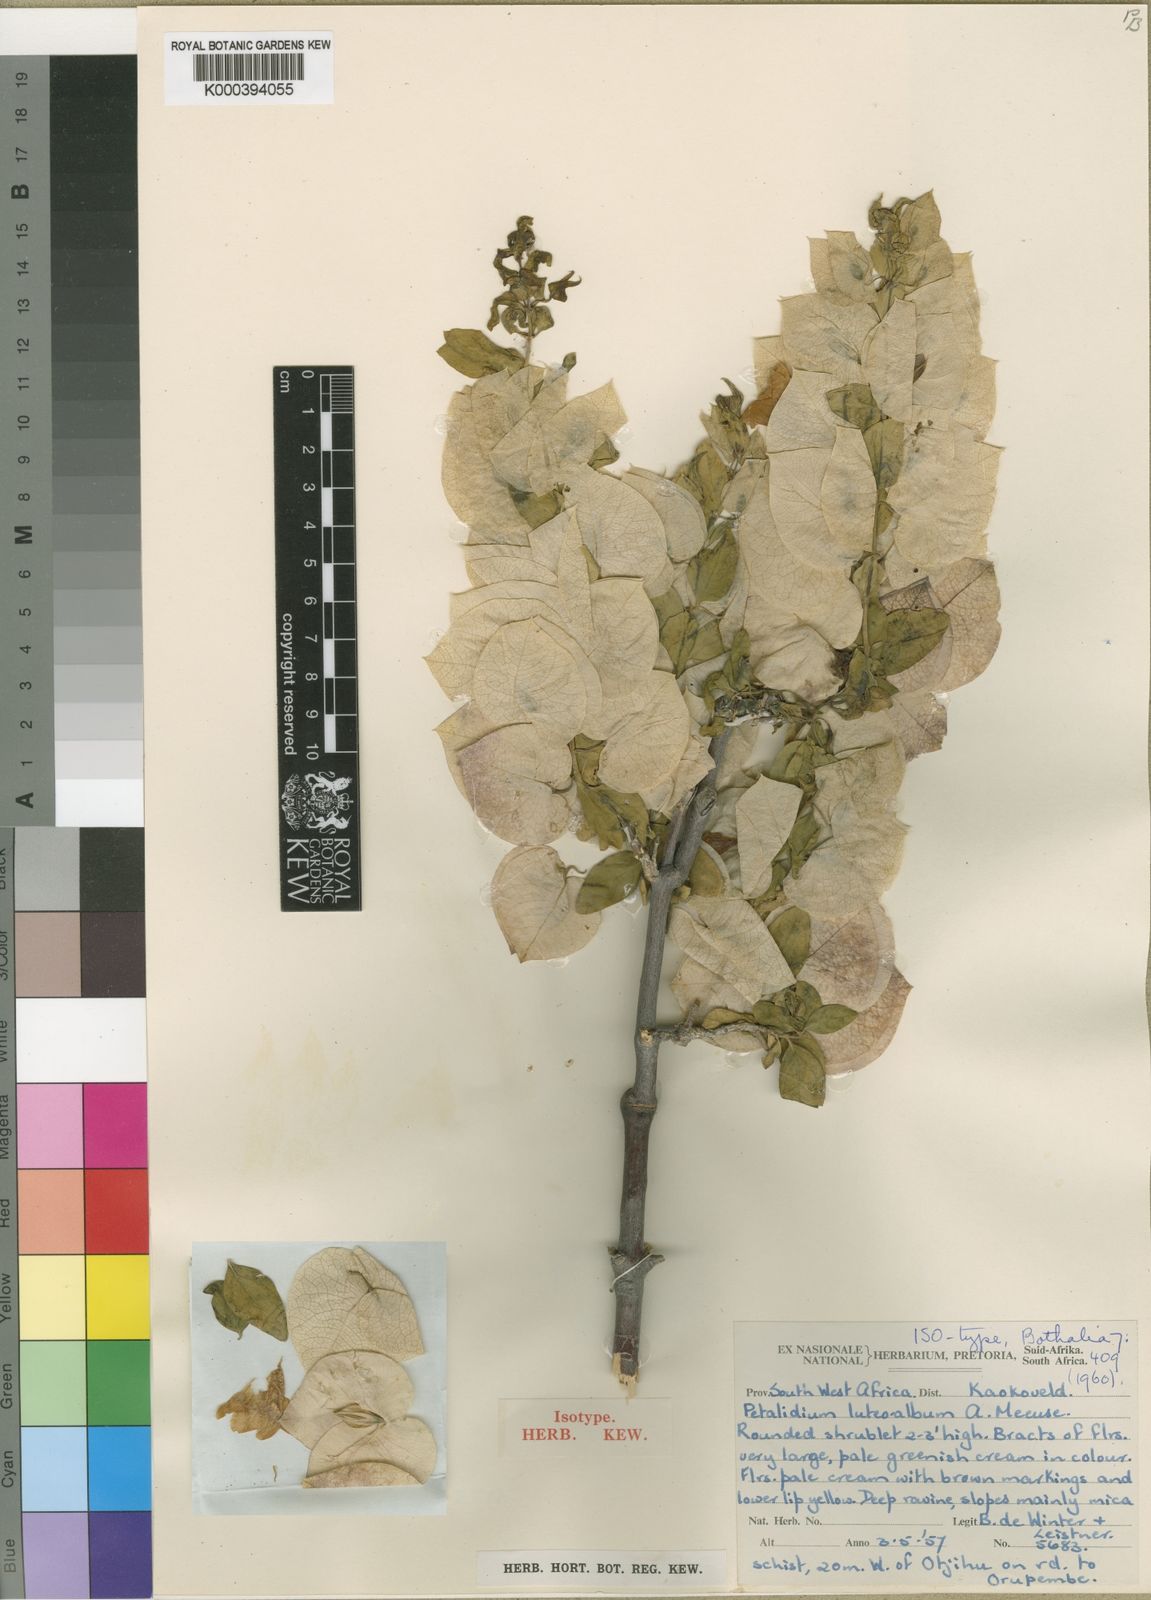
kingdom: Plantae
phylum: Tracheophyta
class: Magnoliopsida
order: Lamiales
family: Acanthaceae
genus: Petalidium
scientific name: Petalidium luteoalbum
